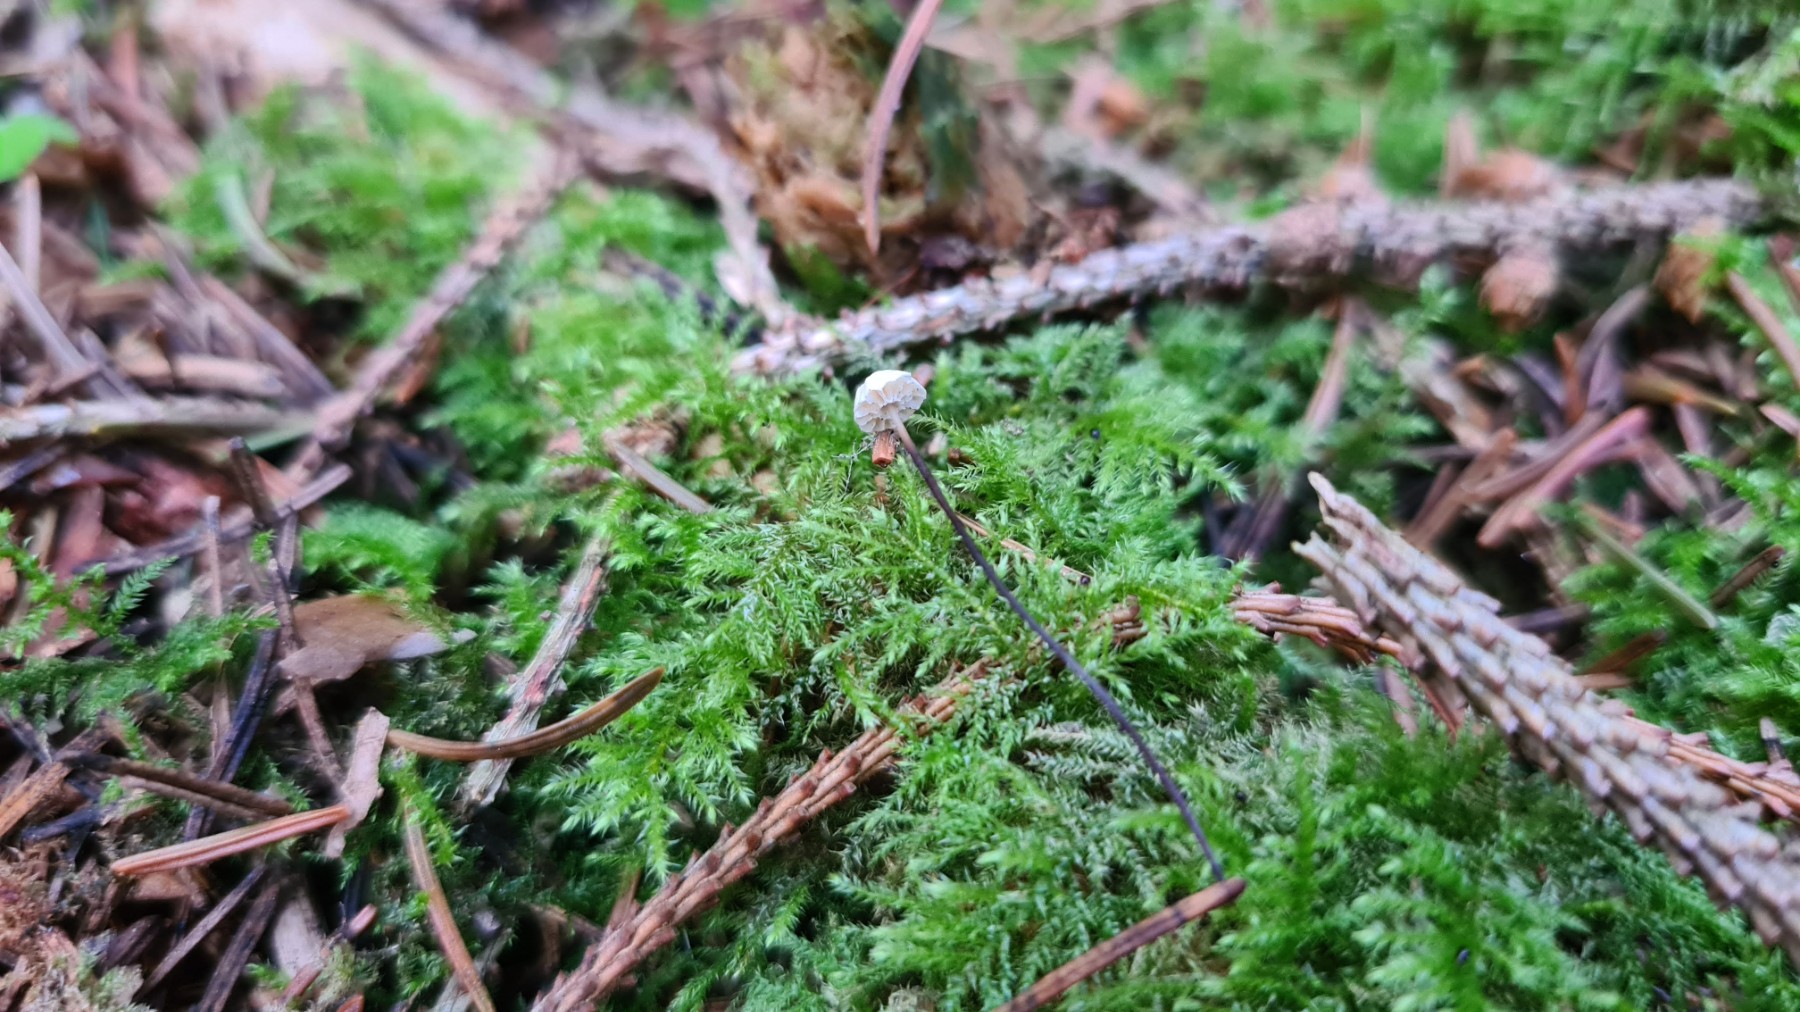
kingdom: Fungi
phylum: Basidiomycota
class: Agaricomycetes
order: Agaricales
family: Marasmiaceae
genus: Marasmius
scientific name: Marasmius wettsteinii
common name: Wettsteins bruskhat
